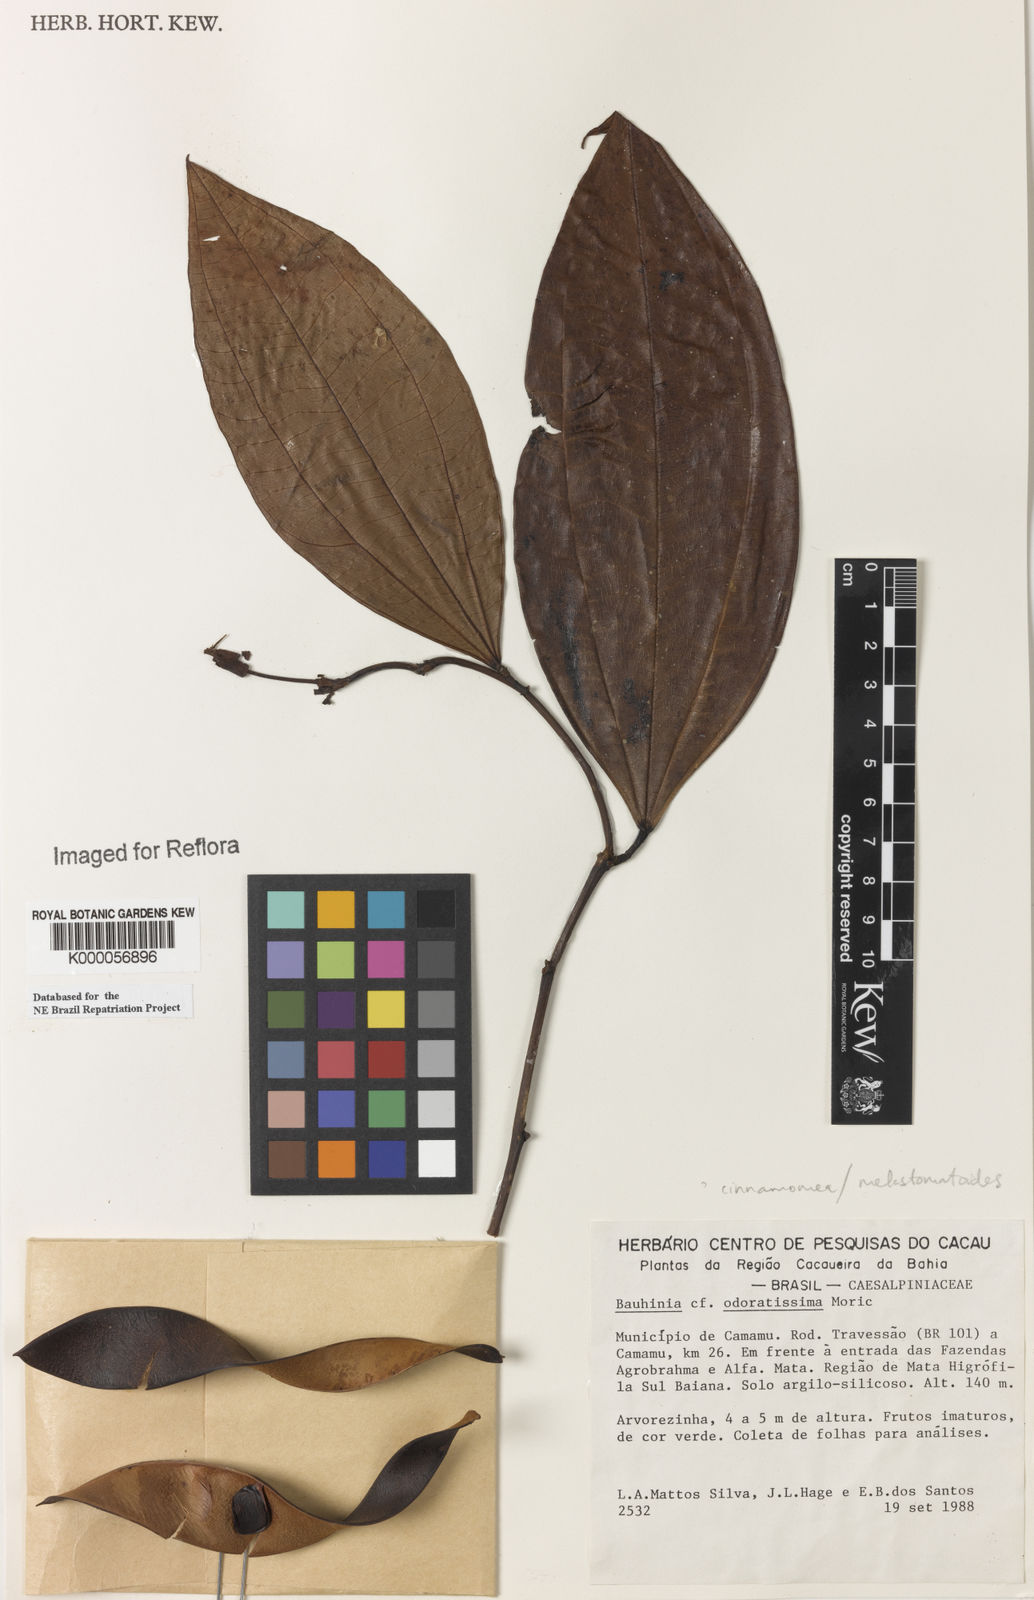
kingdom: Plantae
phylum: Tracheophyta
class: Magnoliopsida
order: Fabales
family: Fabaceae
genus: Bauhinia
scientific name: Bauhinia integerrima
